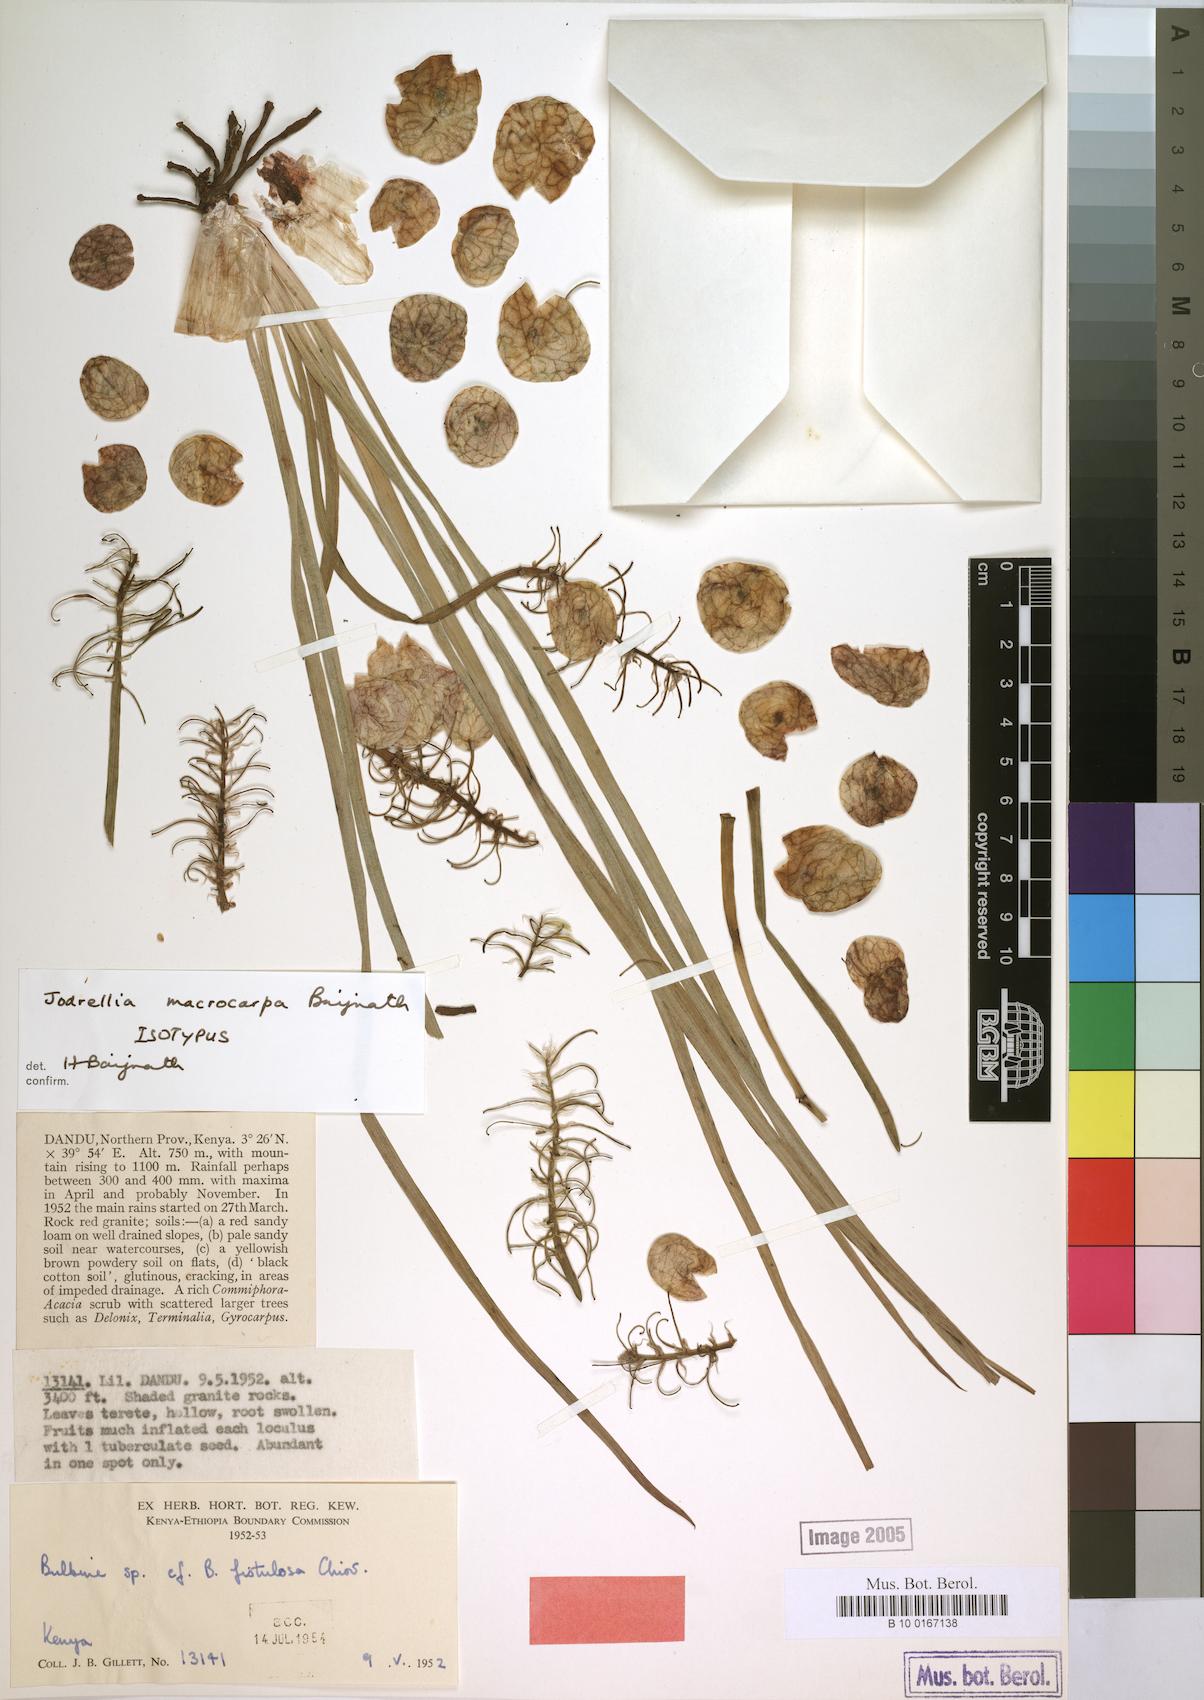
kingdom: Plantae
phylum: Tracheophyta
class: Liliopsida
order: Asparagales
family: Asphodelaceae
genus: Bulbine
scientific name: Bulbine macrocarpa
